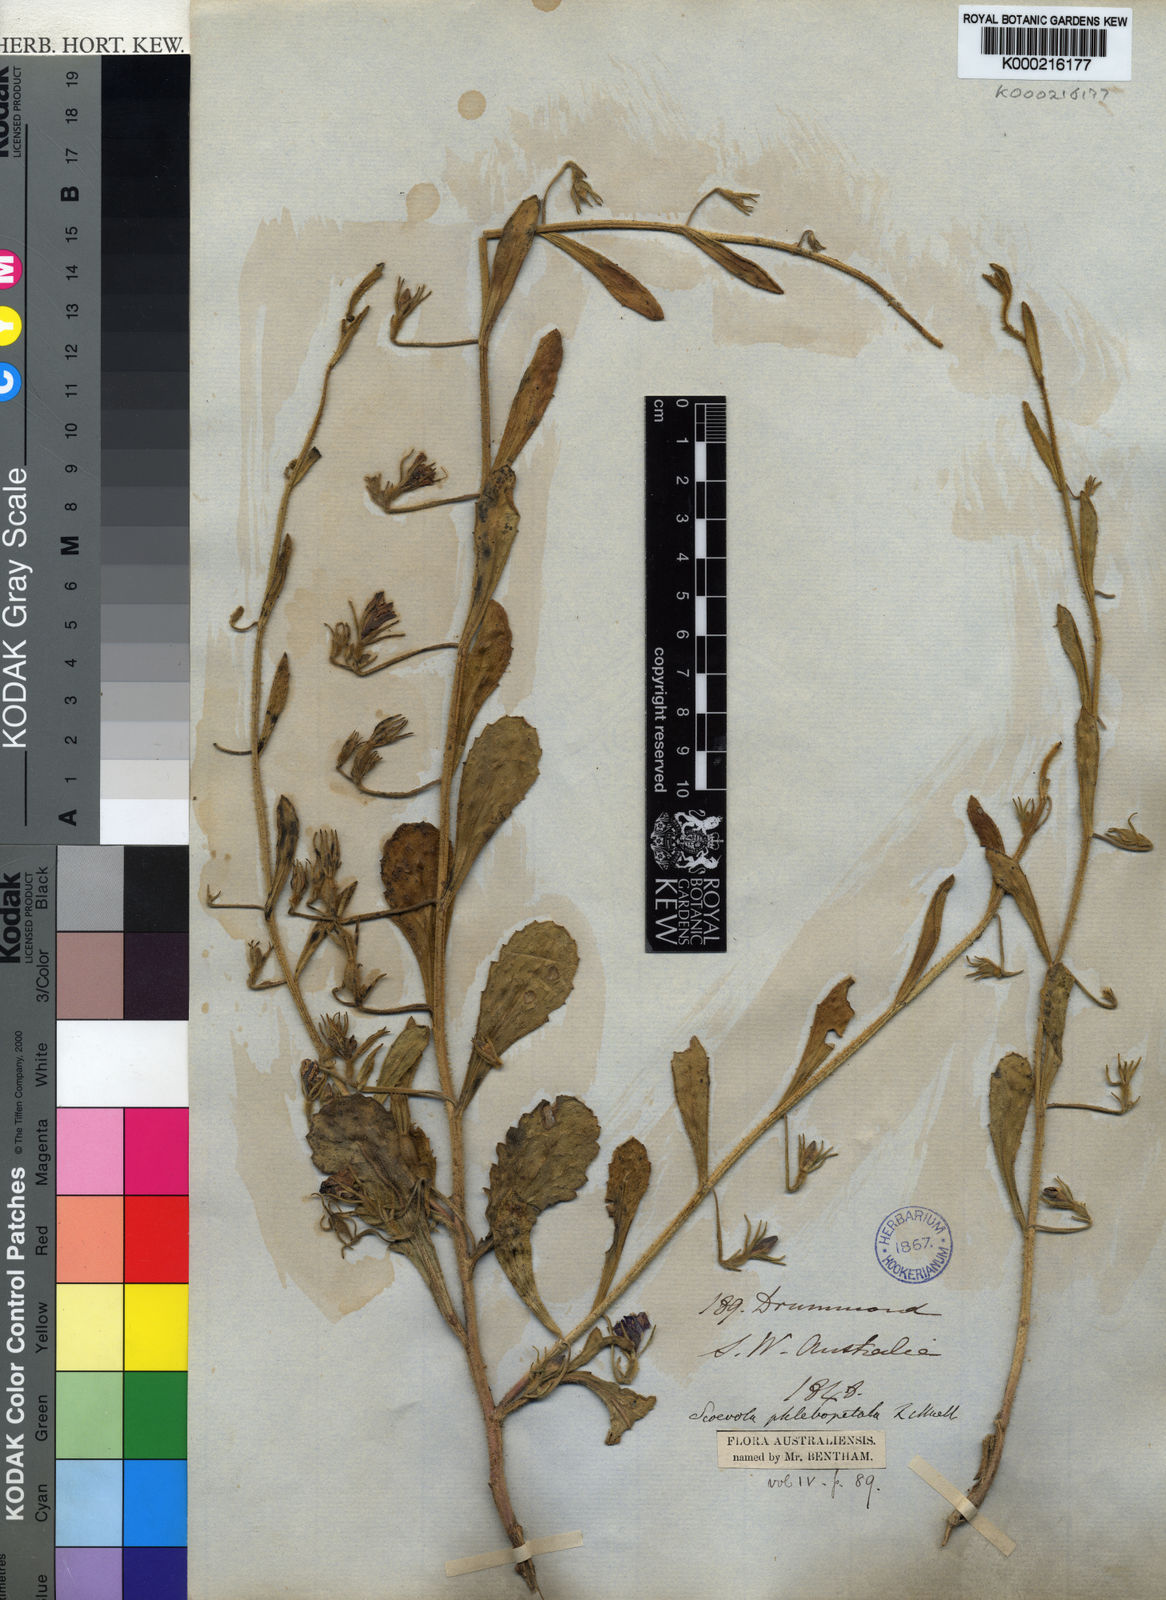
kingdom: Plantae
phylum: Tracheophyta
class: Magnoliopsida
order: Asterales
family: Goodeniaceae
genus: Scaevola
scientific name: Scaevola phlebopetala
